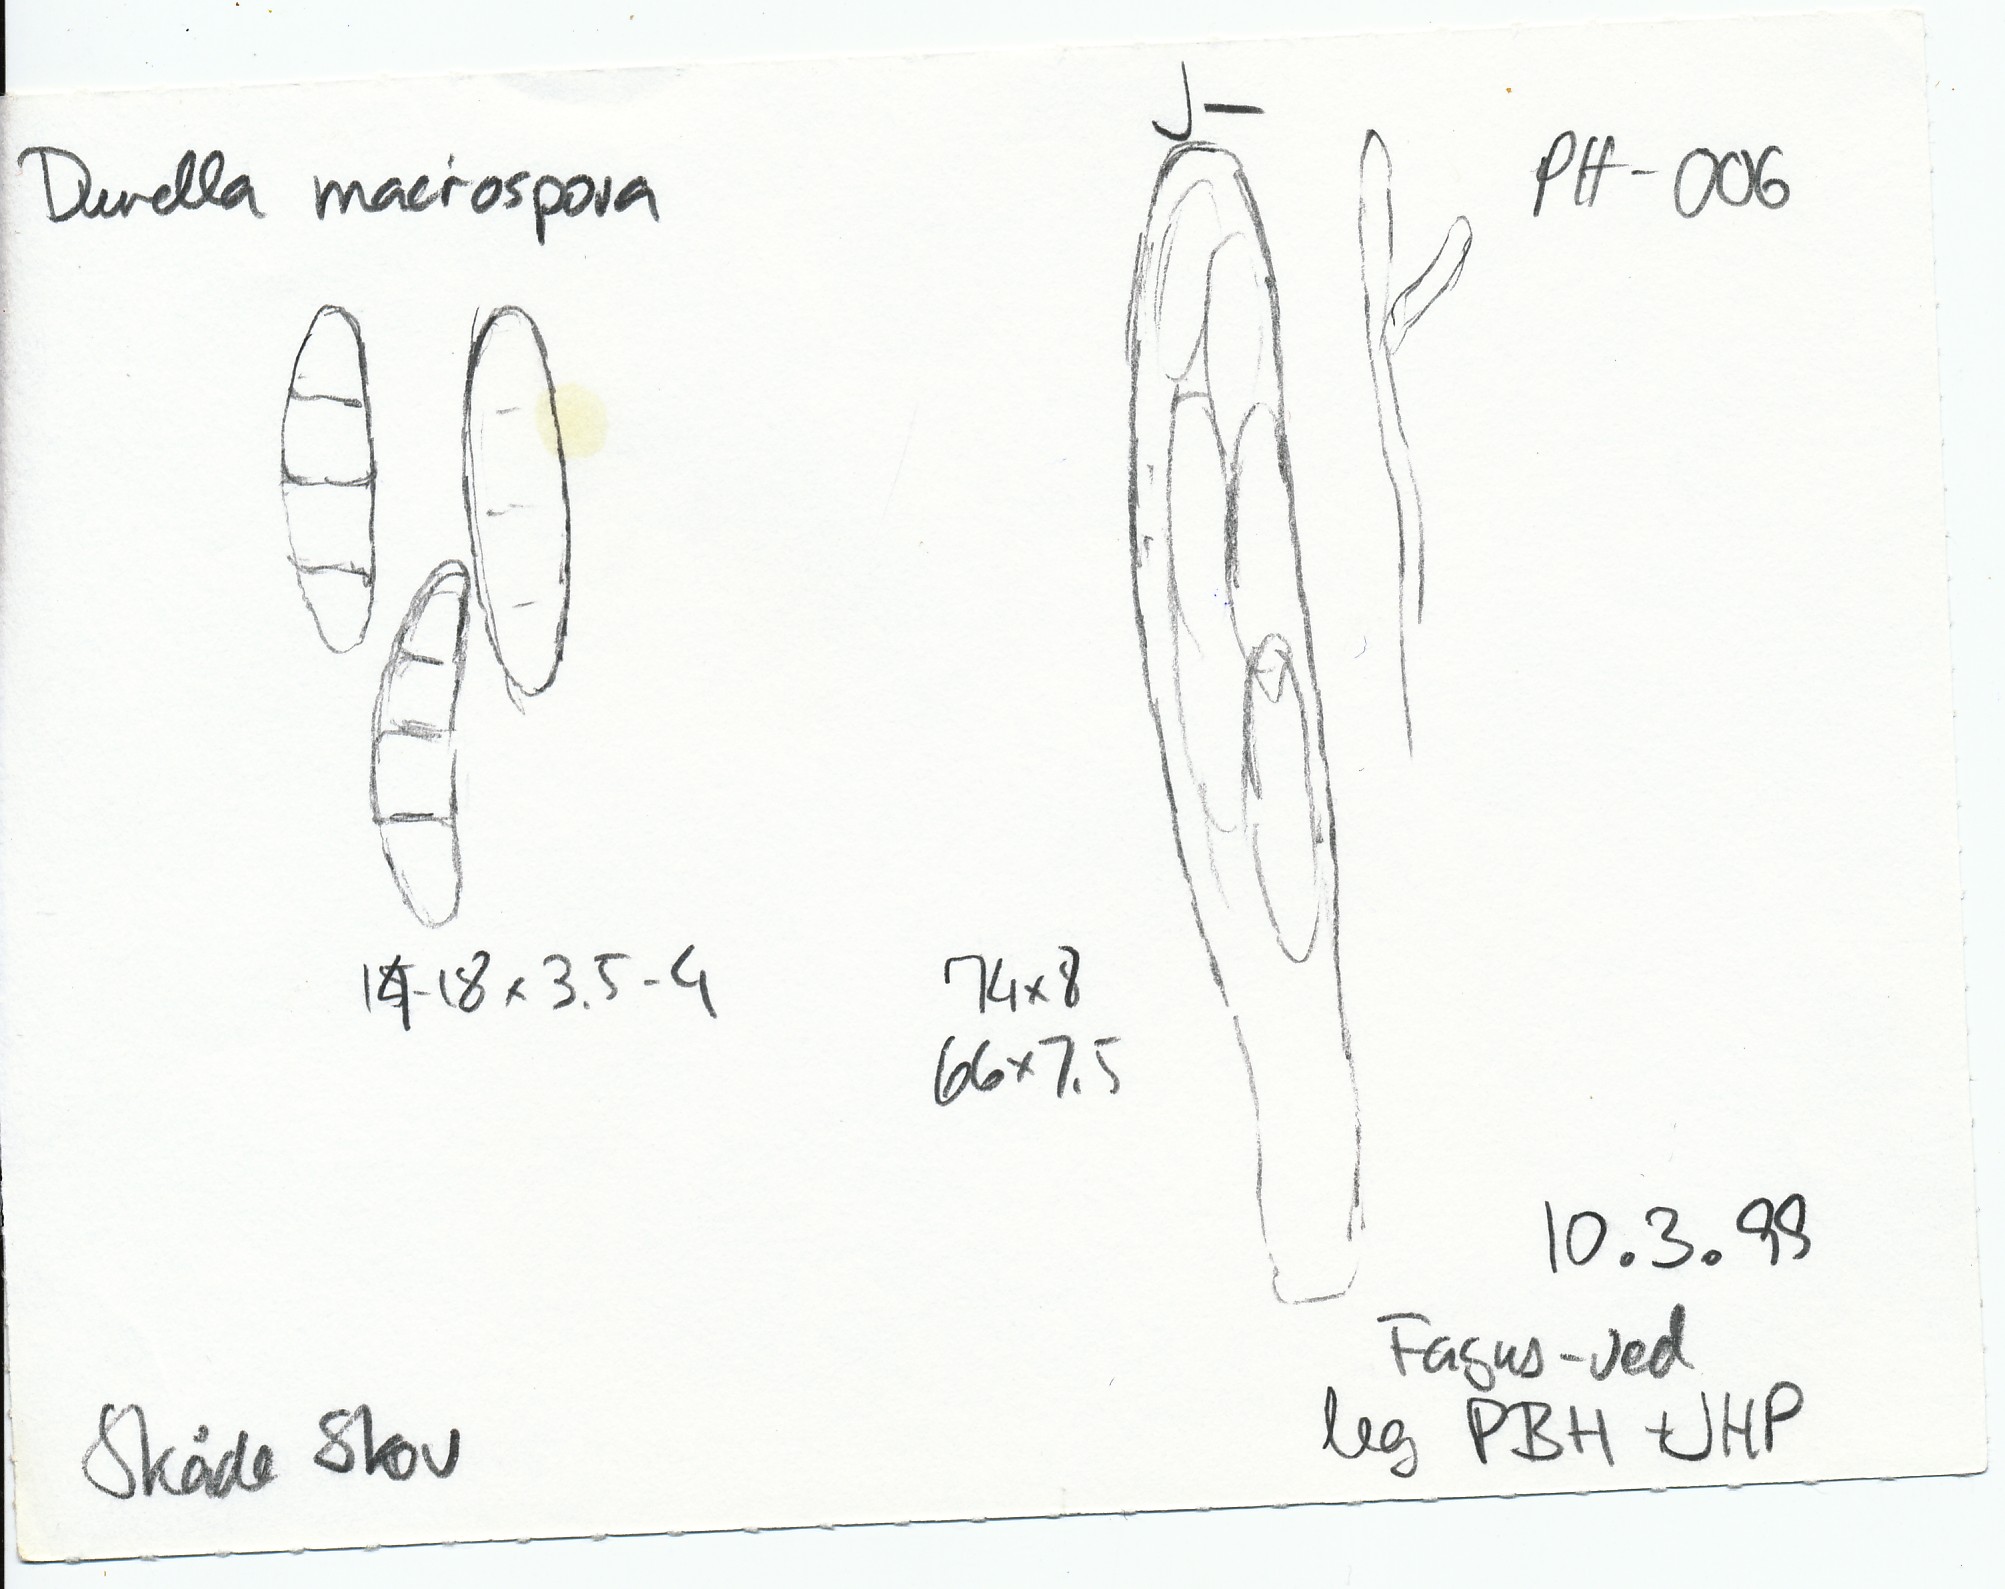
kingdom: Fungi
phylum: Ascomycota
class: Leotiomycetes
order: Helotiales
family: Helotiaceae
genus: Durella
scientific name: Durella macrospora
